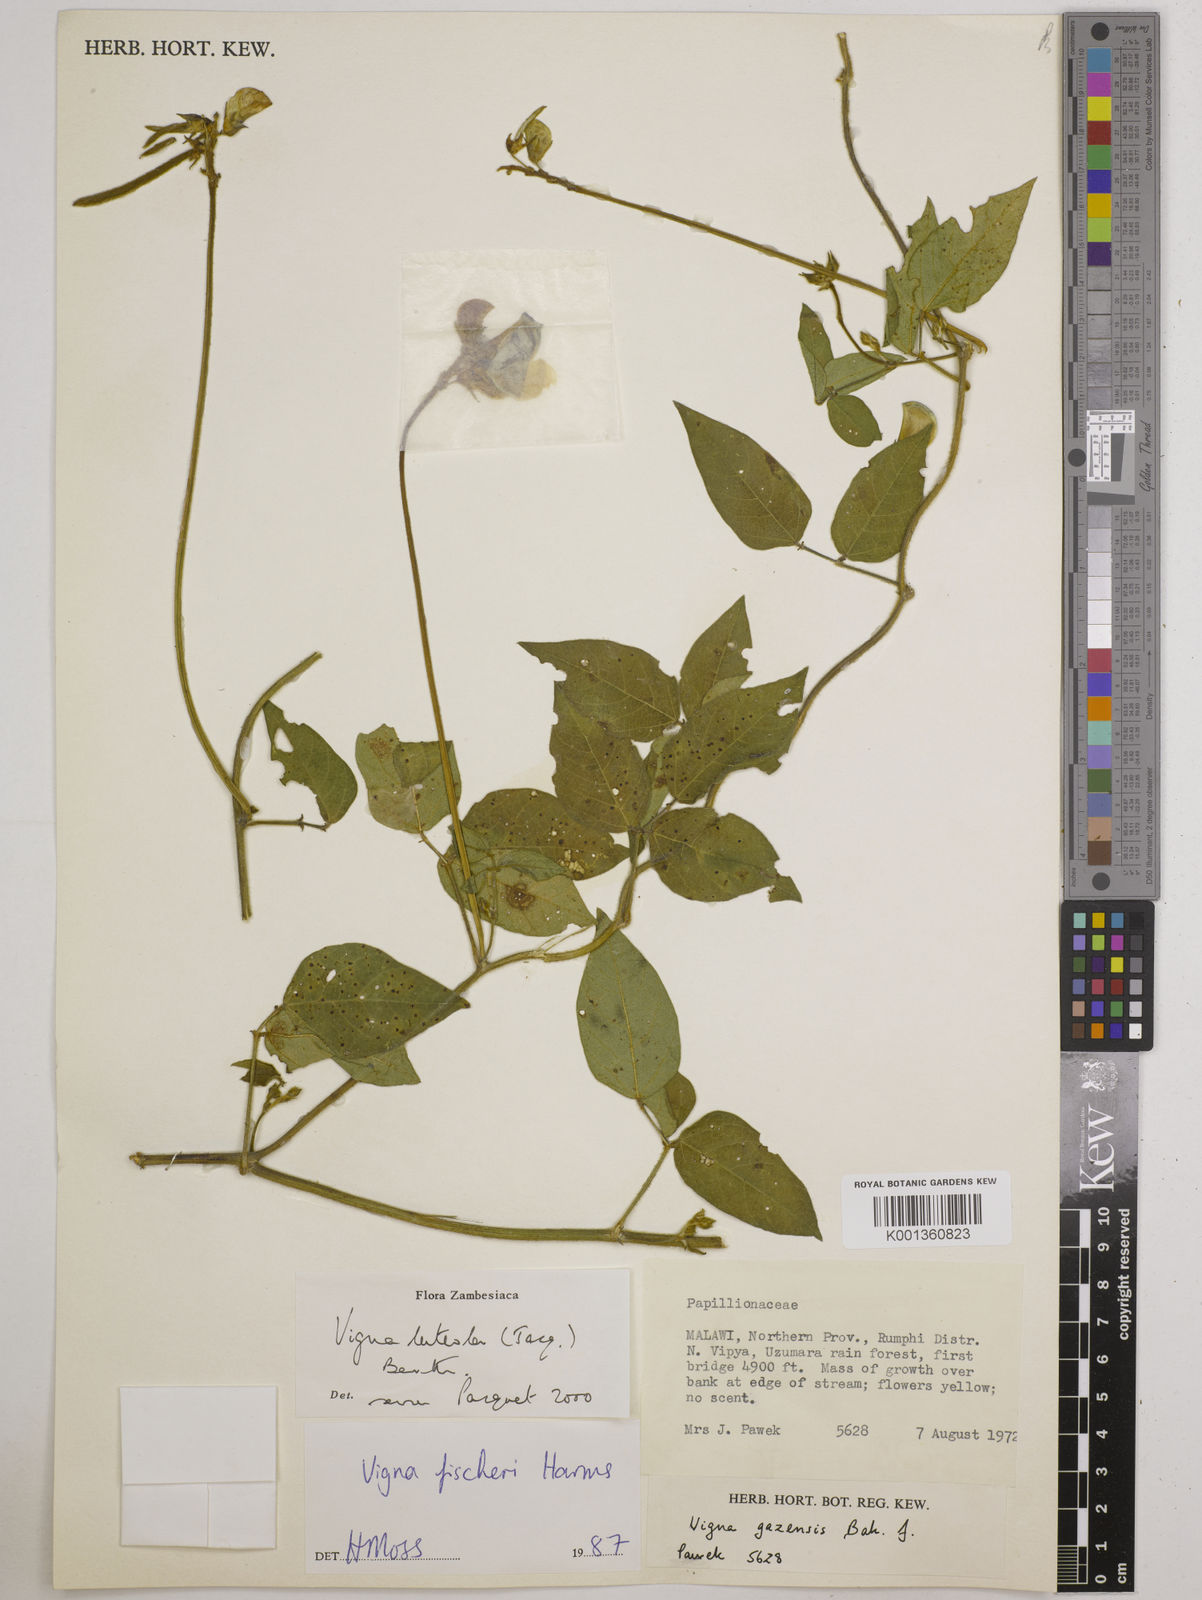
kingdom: Plantae
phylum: Tracheophyta
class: Magnoliopsida
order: Fabales
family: Fabaceae
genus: Vigna
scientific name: Vigna luteola
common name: Hairypod cowpea
